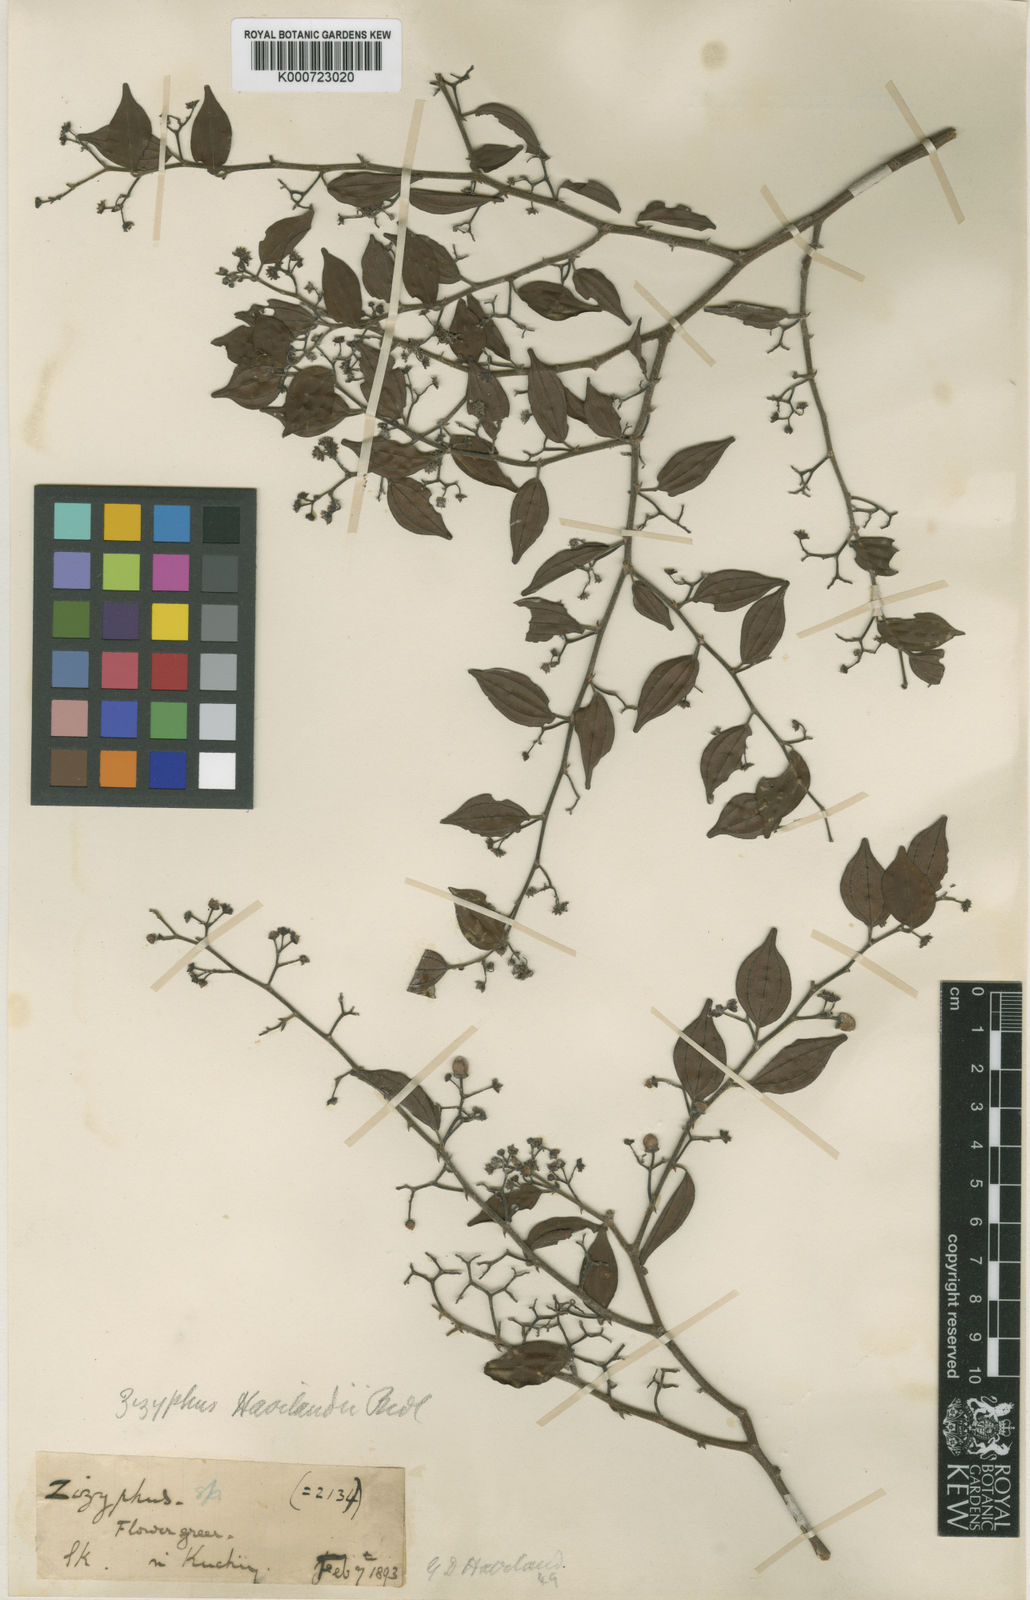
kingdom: Plantae
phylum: Tracheophyta
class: Magnoliopsida
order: Rosales
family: Rhamnaceae
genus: Ziziphus
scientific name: Ziziphus havilandii
